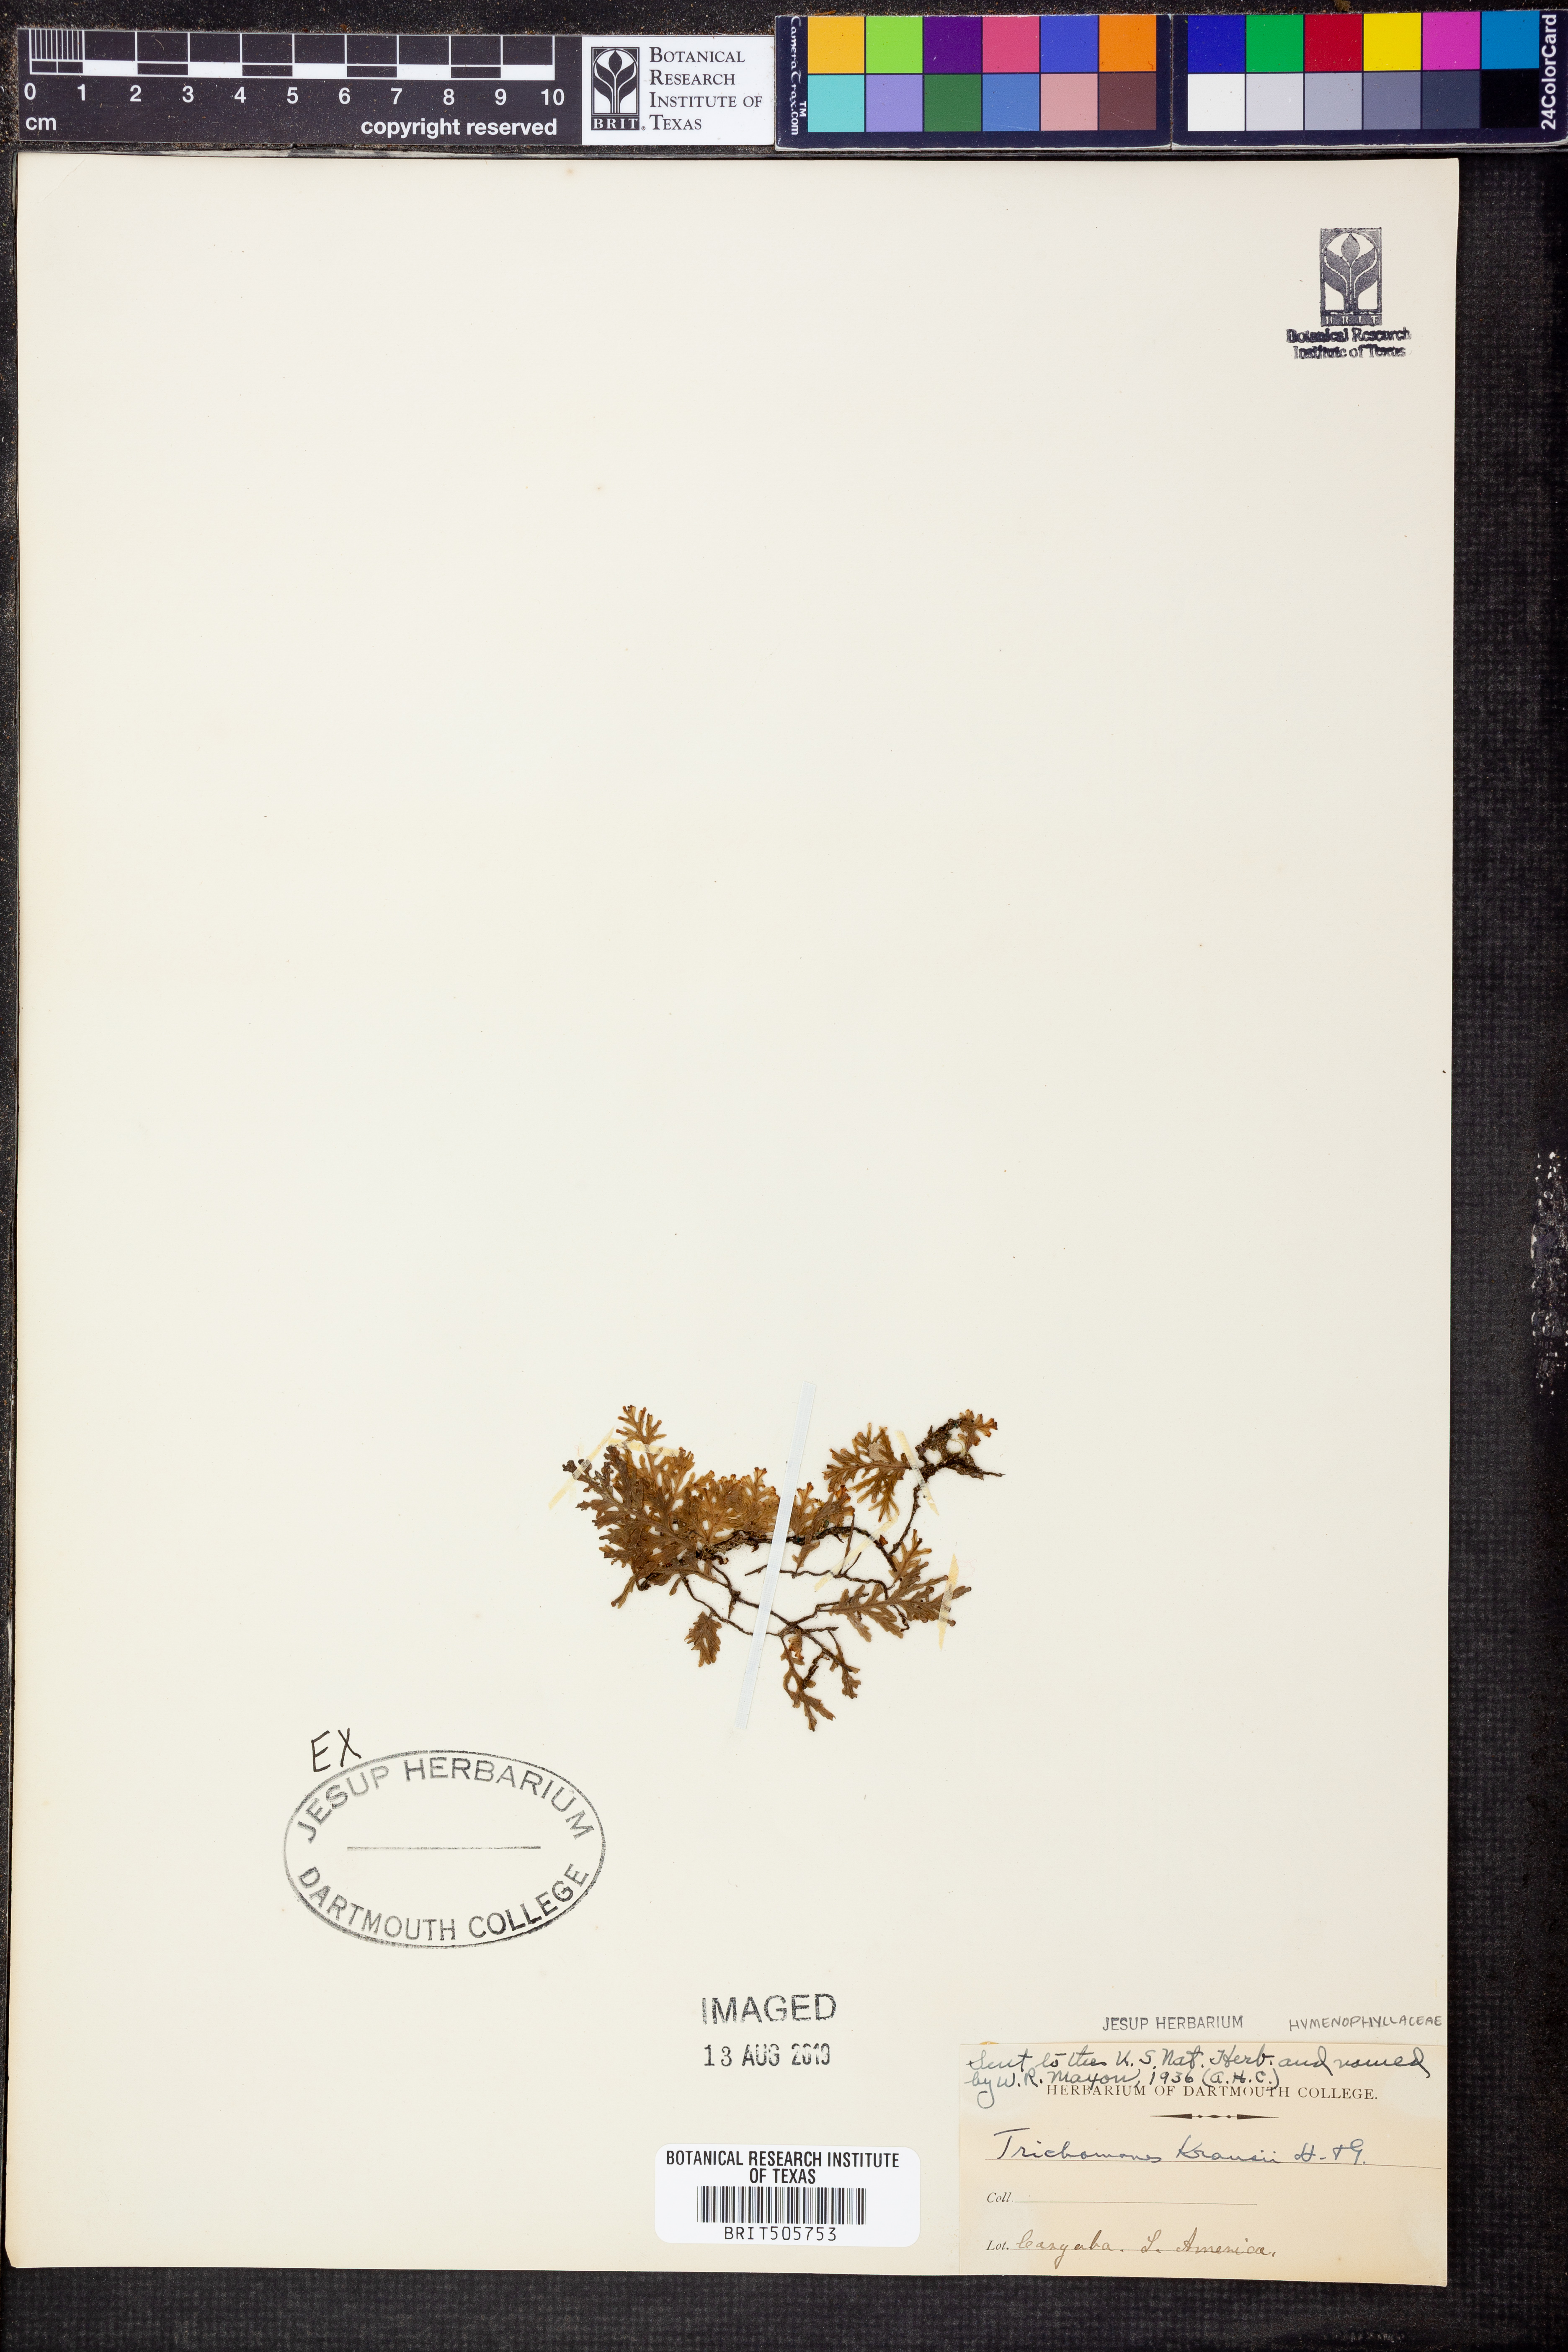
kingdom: Plantae
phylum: Tracheophyta
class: Polypodiopsida
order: Hymenophyllales
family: Hymenophyllaceae
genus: Didymoglossum
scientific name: Didymoglossum kraussii
